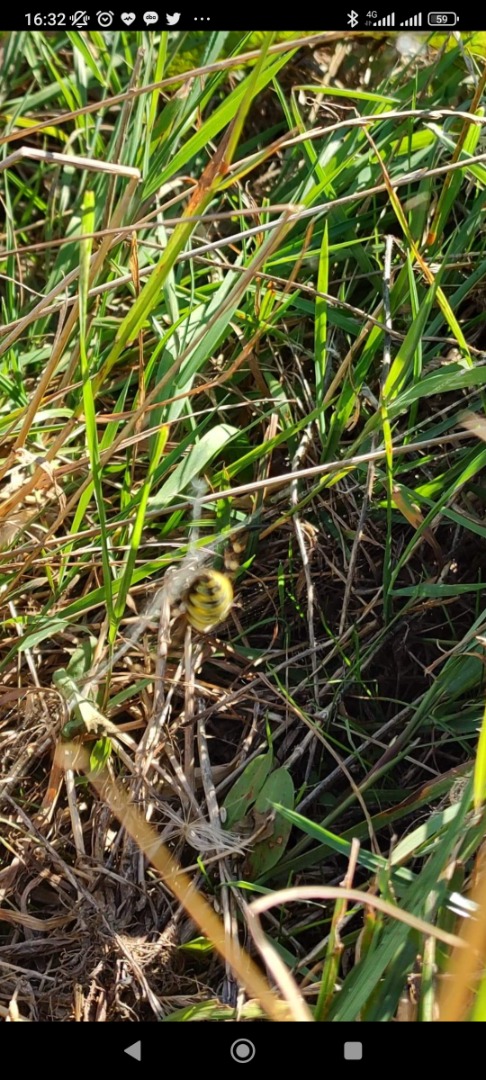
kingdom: Animalia
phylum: Arthropoda
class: Arachnida
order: Araneae
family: Araneidae
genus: Argiope
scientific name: Argiope bruennichi
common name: Hvepseedderkop
